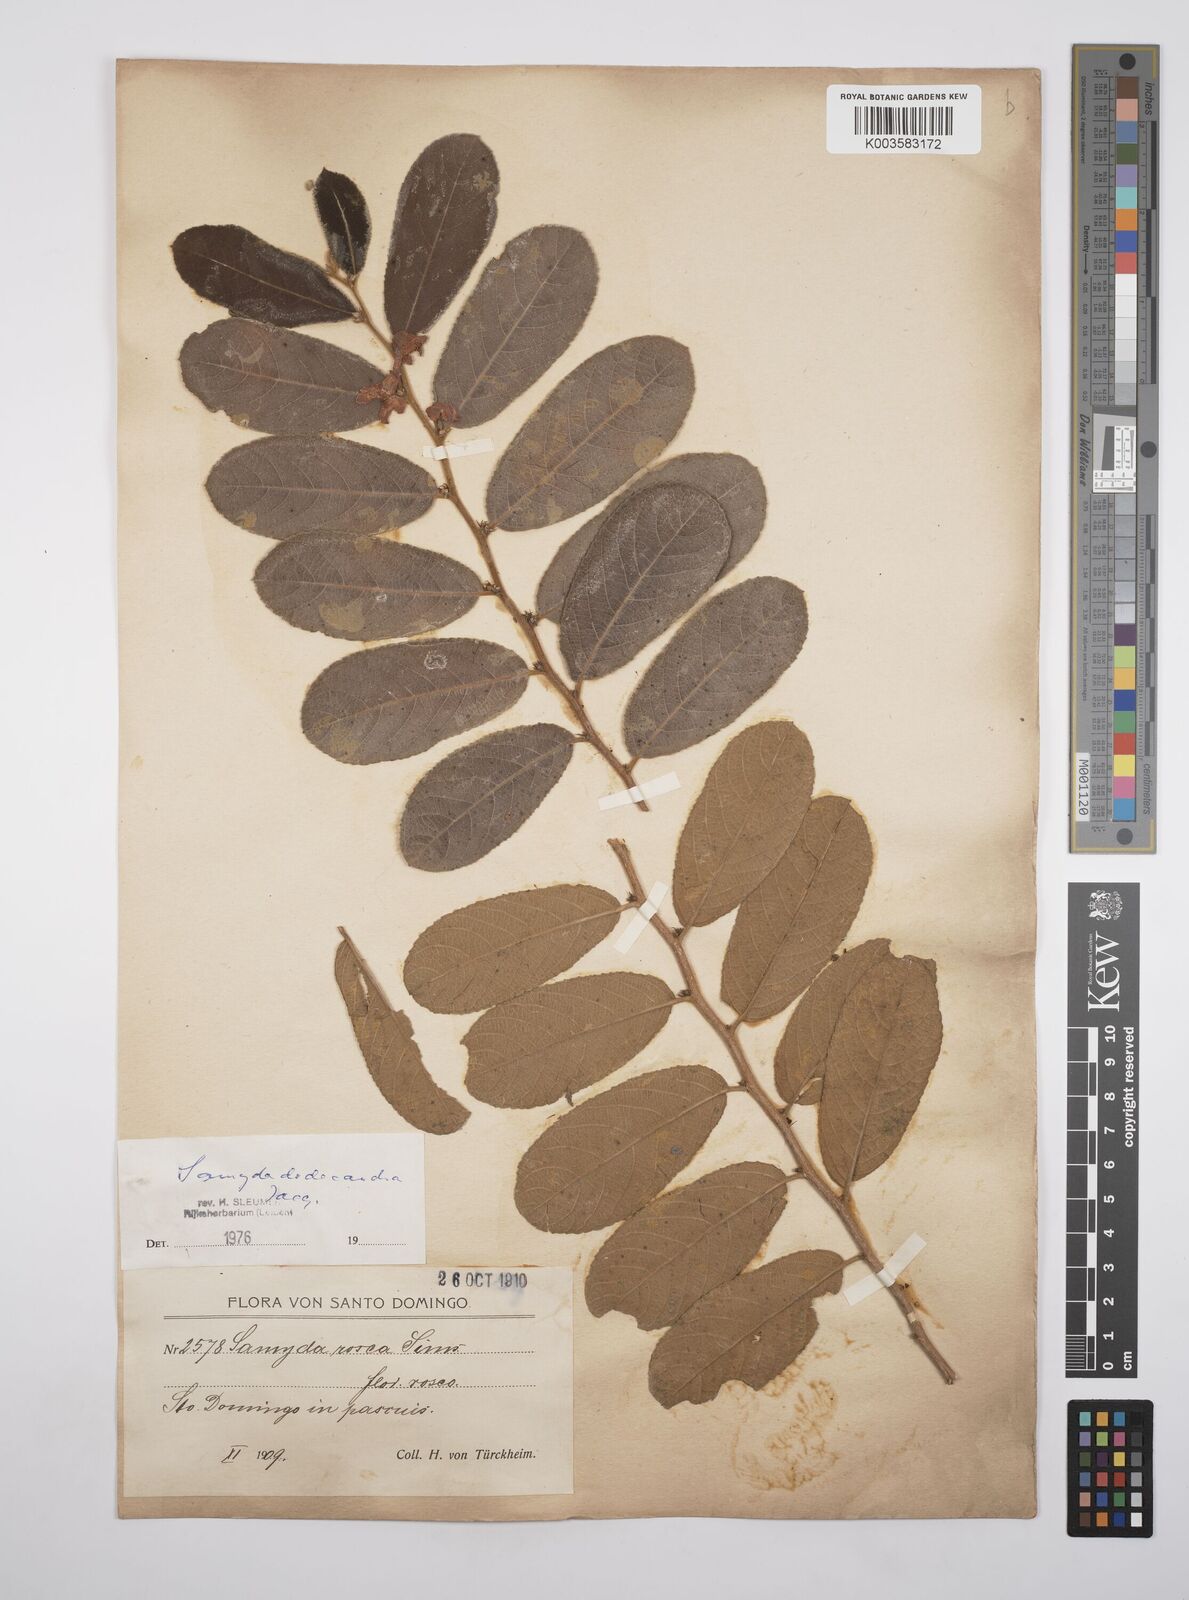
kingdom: Plantae
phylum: Tracheophyta
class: Magnoliopsida
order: Malpighiales
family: Salicaceae
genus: Casearia
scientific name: Casearia dodecandra
